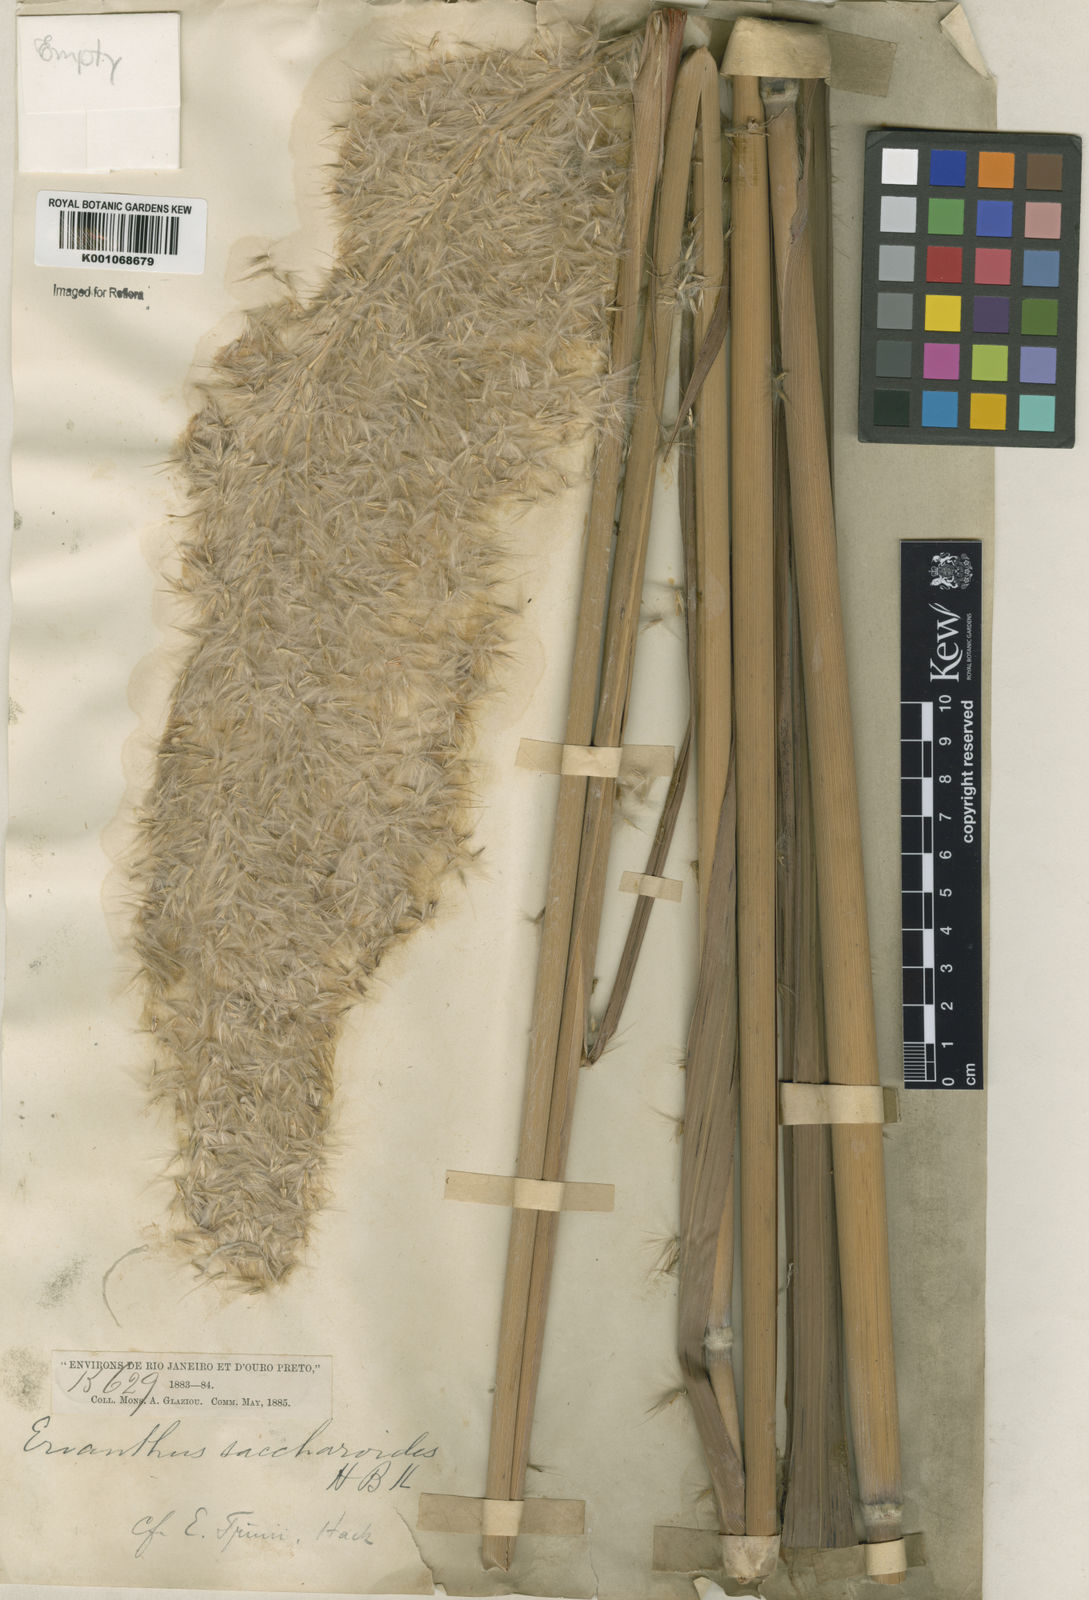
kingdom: Plantae
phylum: Tracheophyta
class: Liliopsida
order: Poales
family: Poaceae
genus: Erianthus
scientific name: Erianthus trinii
